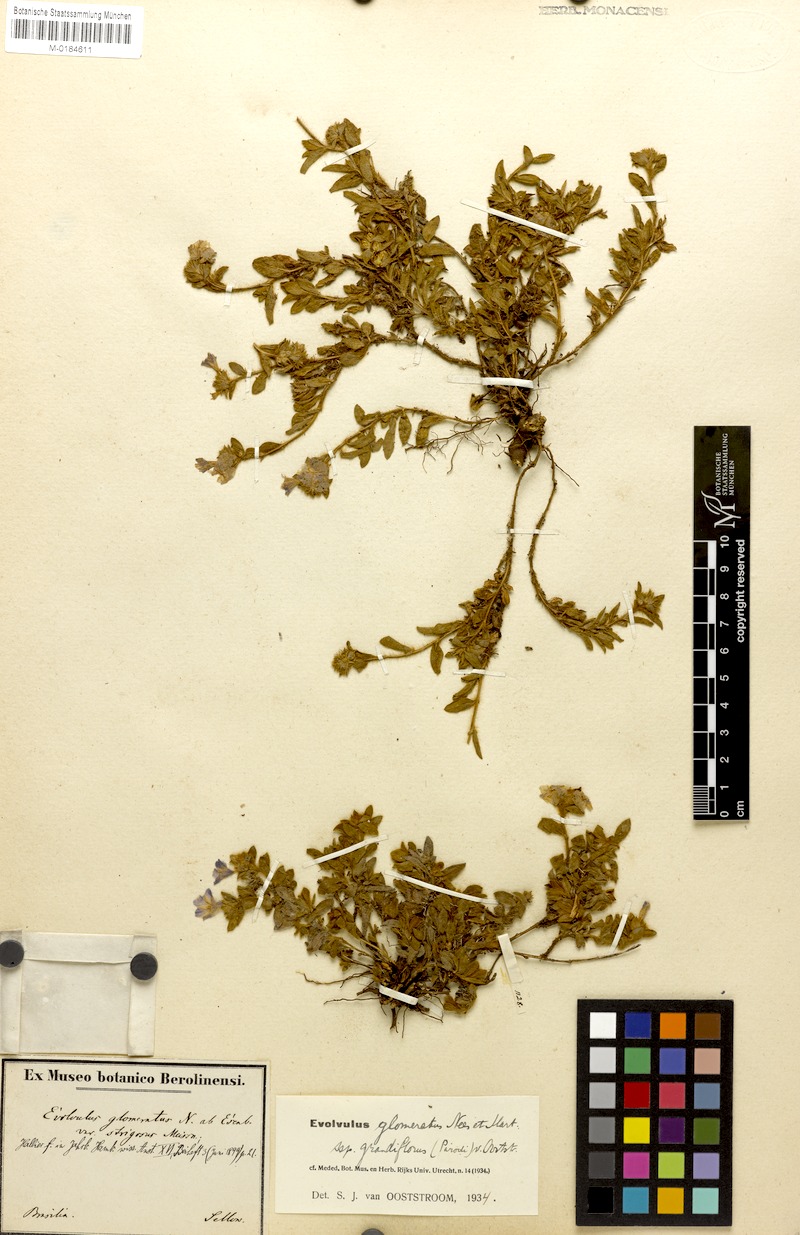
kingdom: Plantae
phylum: Tracheophyta
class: Magnoliopsida
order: Solanales
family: Convolvulaceae
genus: Evolvulus
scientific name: Evolvulus glomeratus
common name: Brazilian dwarf morning-glory
